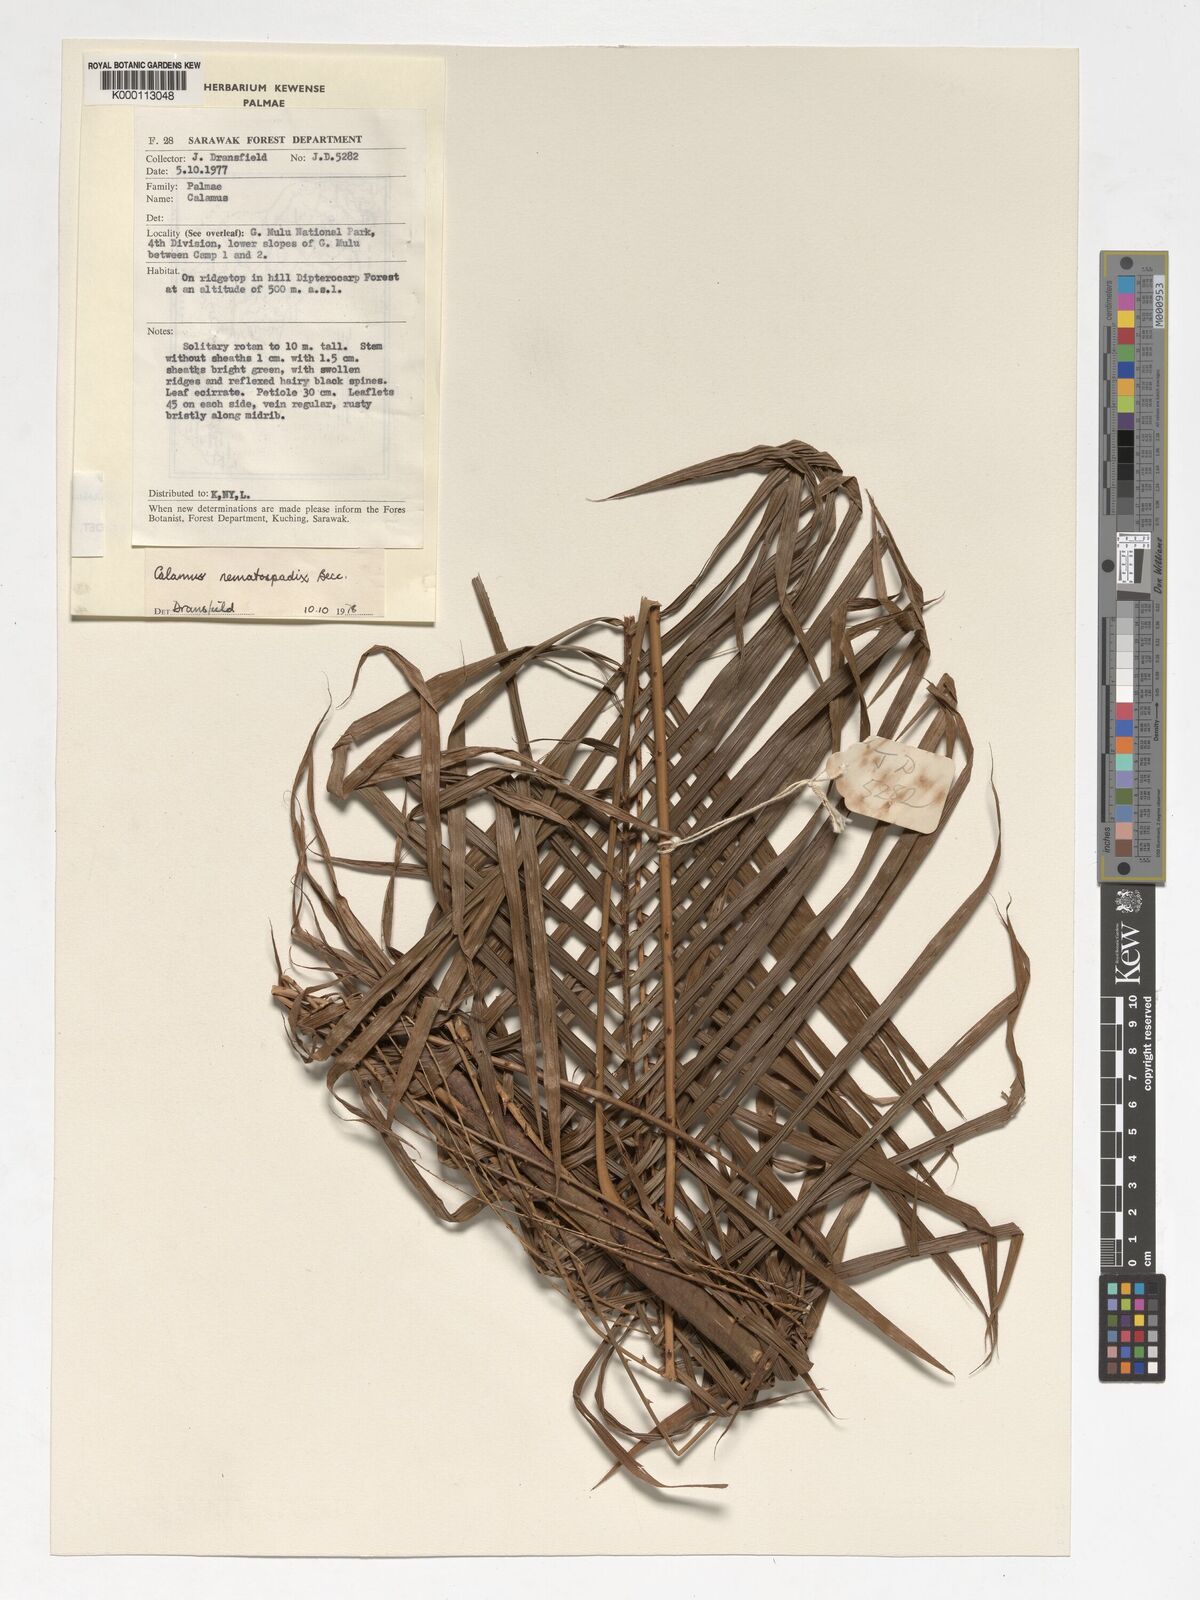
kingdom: Plantae
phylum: Tracheophyta
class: Liliopsida
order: Arecales
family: Arecaceae
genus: Calamus
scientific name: Calamus comptus
